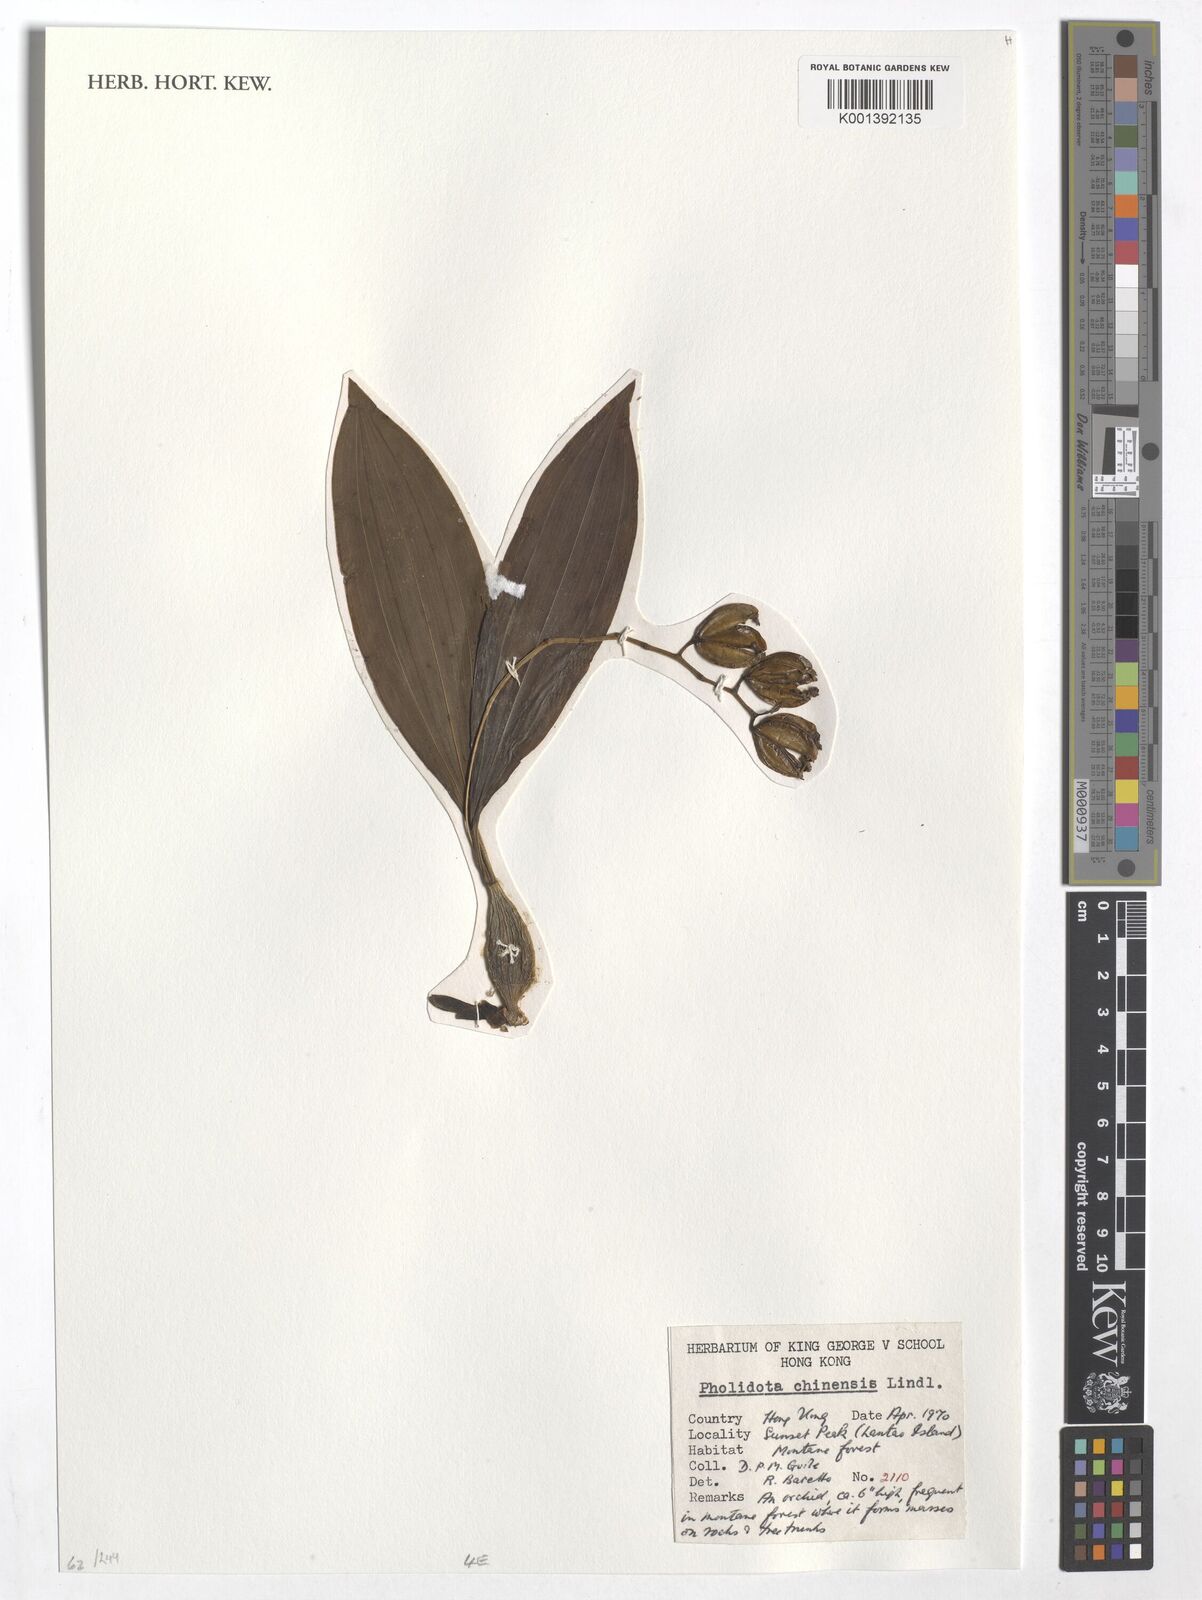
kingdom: Plantae
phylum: Tracheophyta
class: Liliopsida
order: Asparagales
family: Orchidaceae
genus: Coelogyne
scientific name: Coelogyne chinensis
